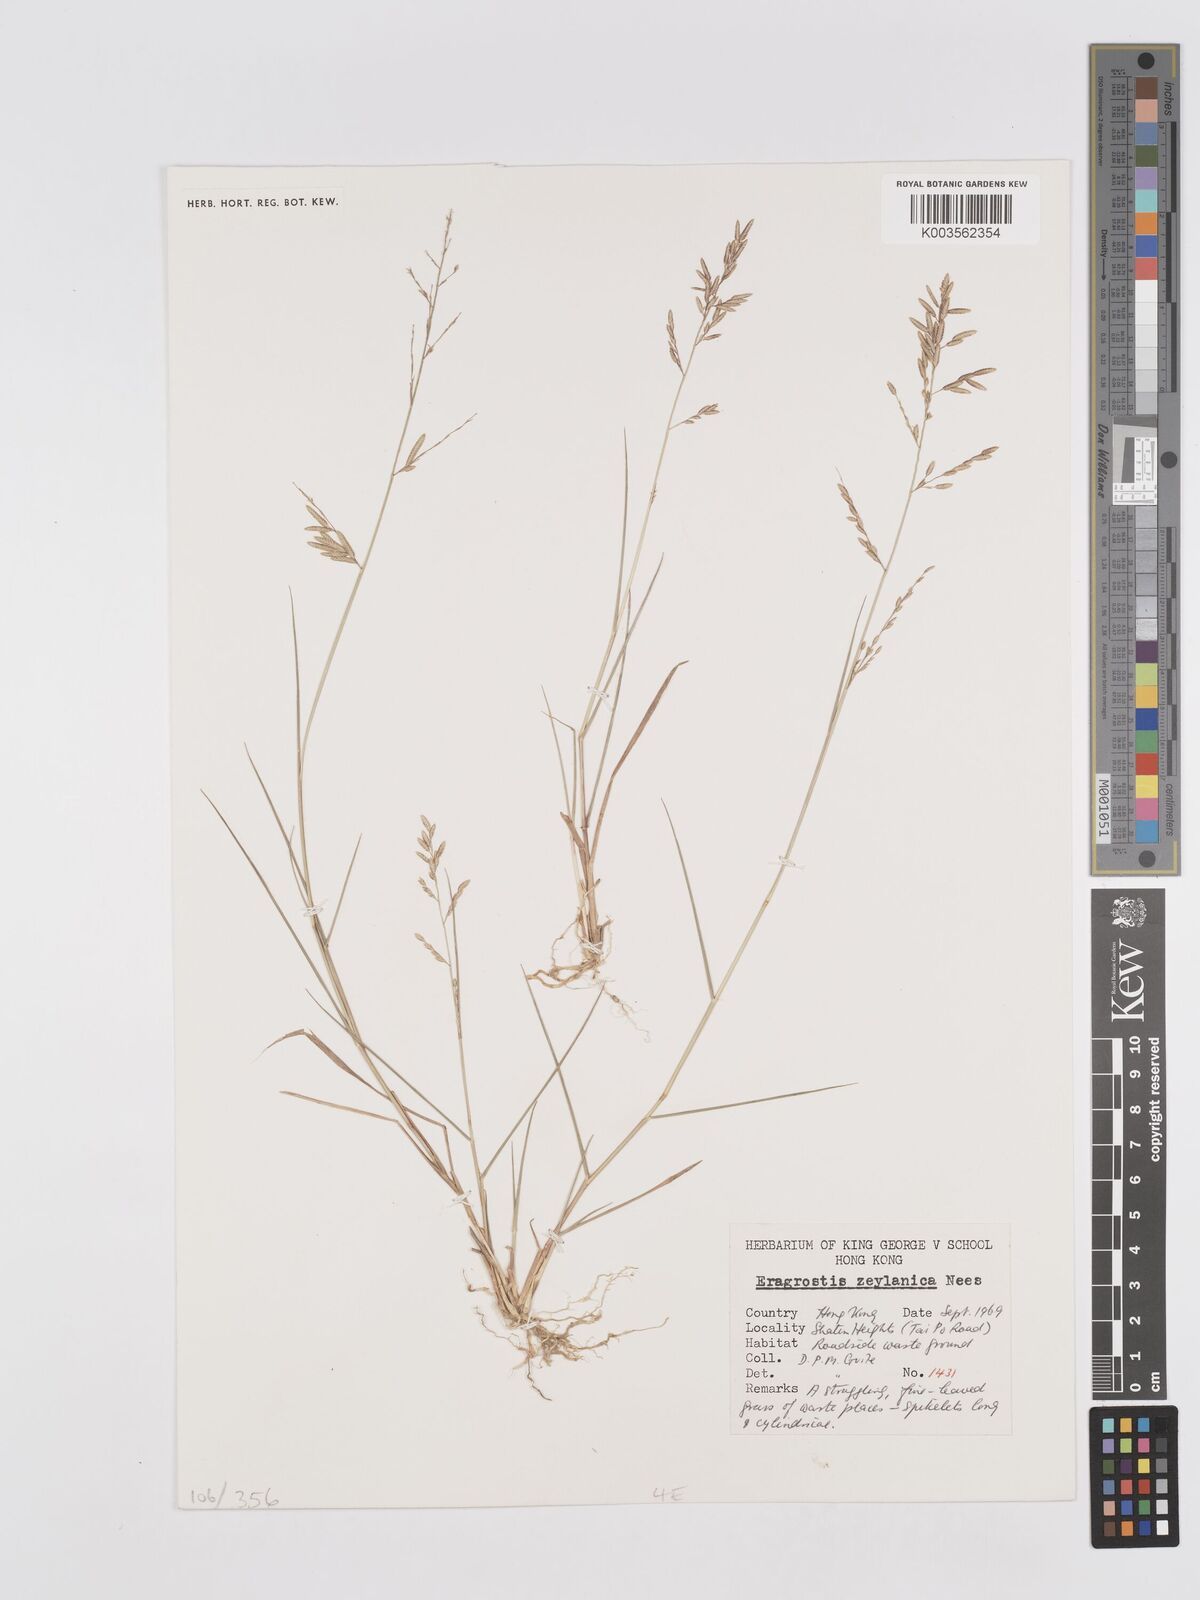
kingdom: Plantae
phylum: Tracheophyta
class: Liliopsida
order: Poales
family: Poaceae
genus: Eragrostis
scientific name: Eragrostis zeylanica
